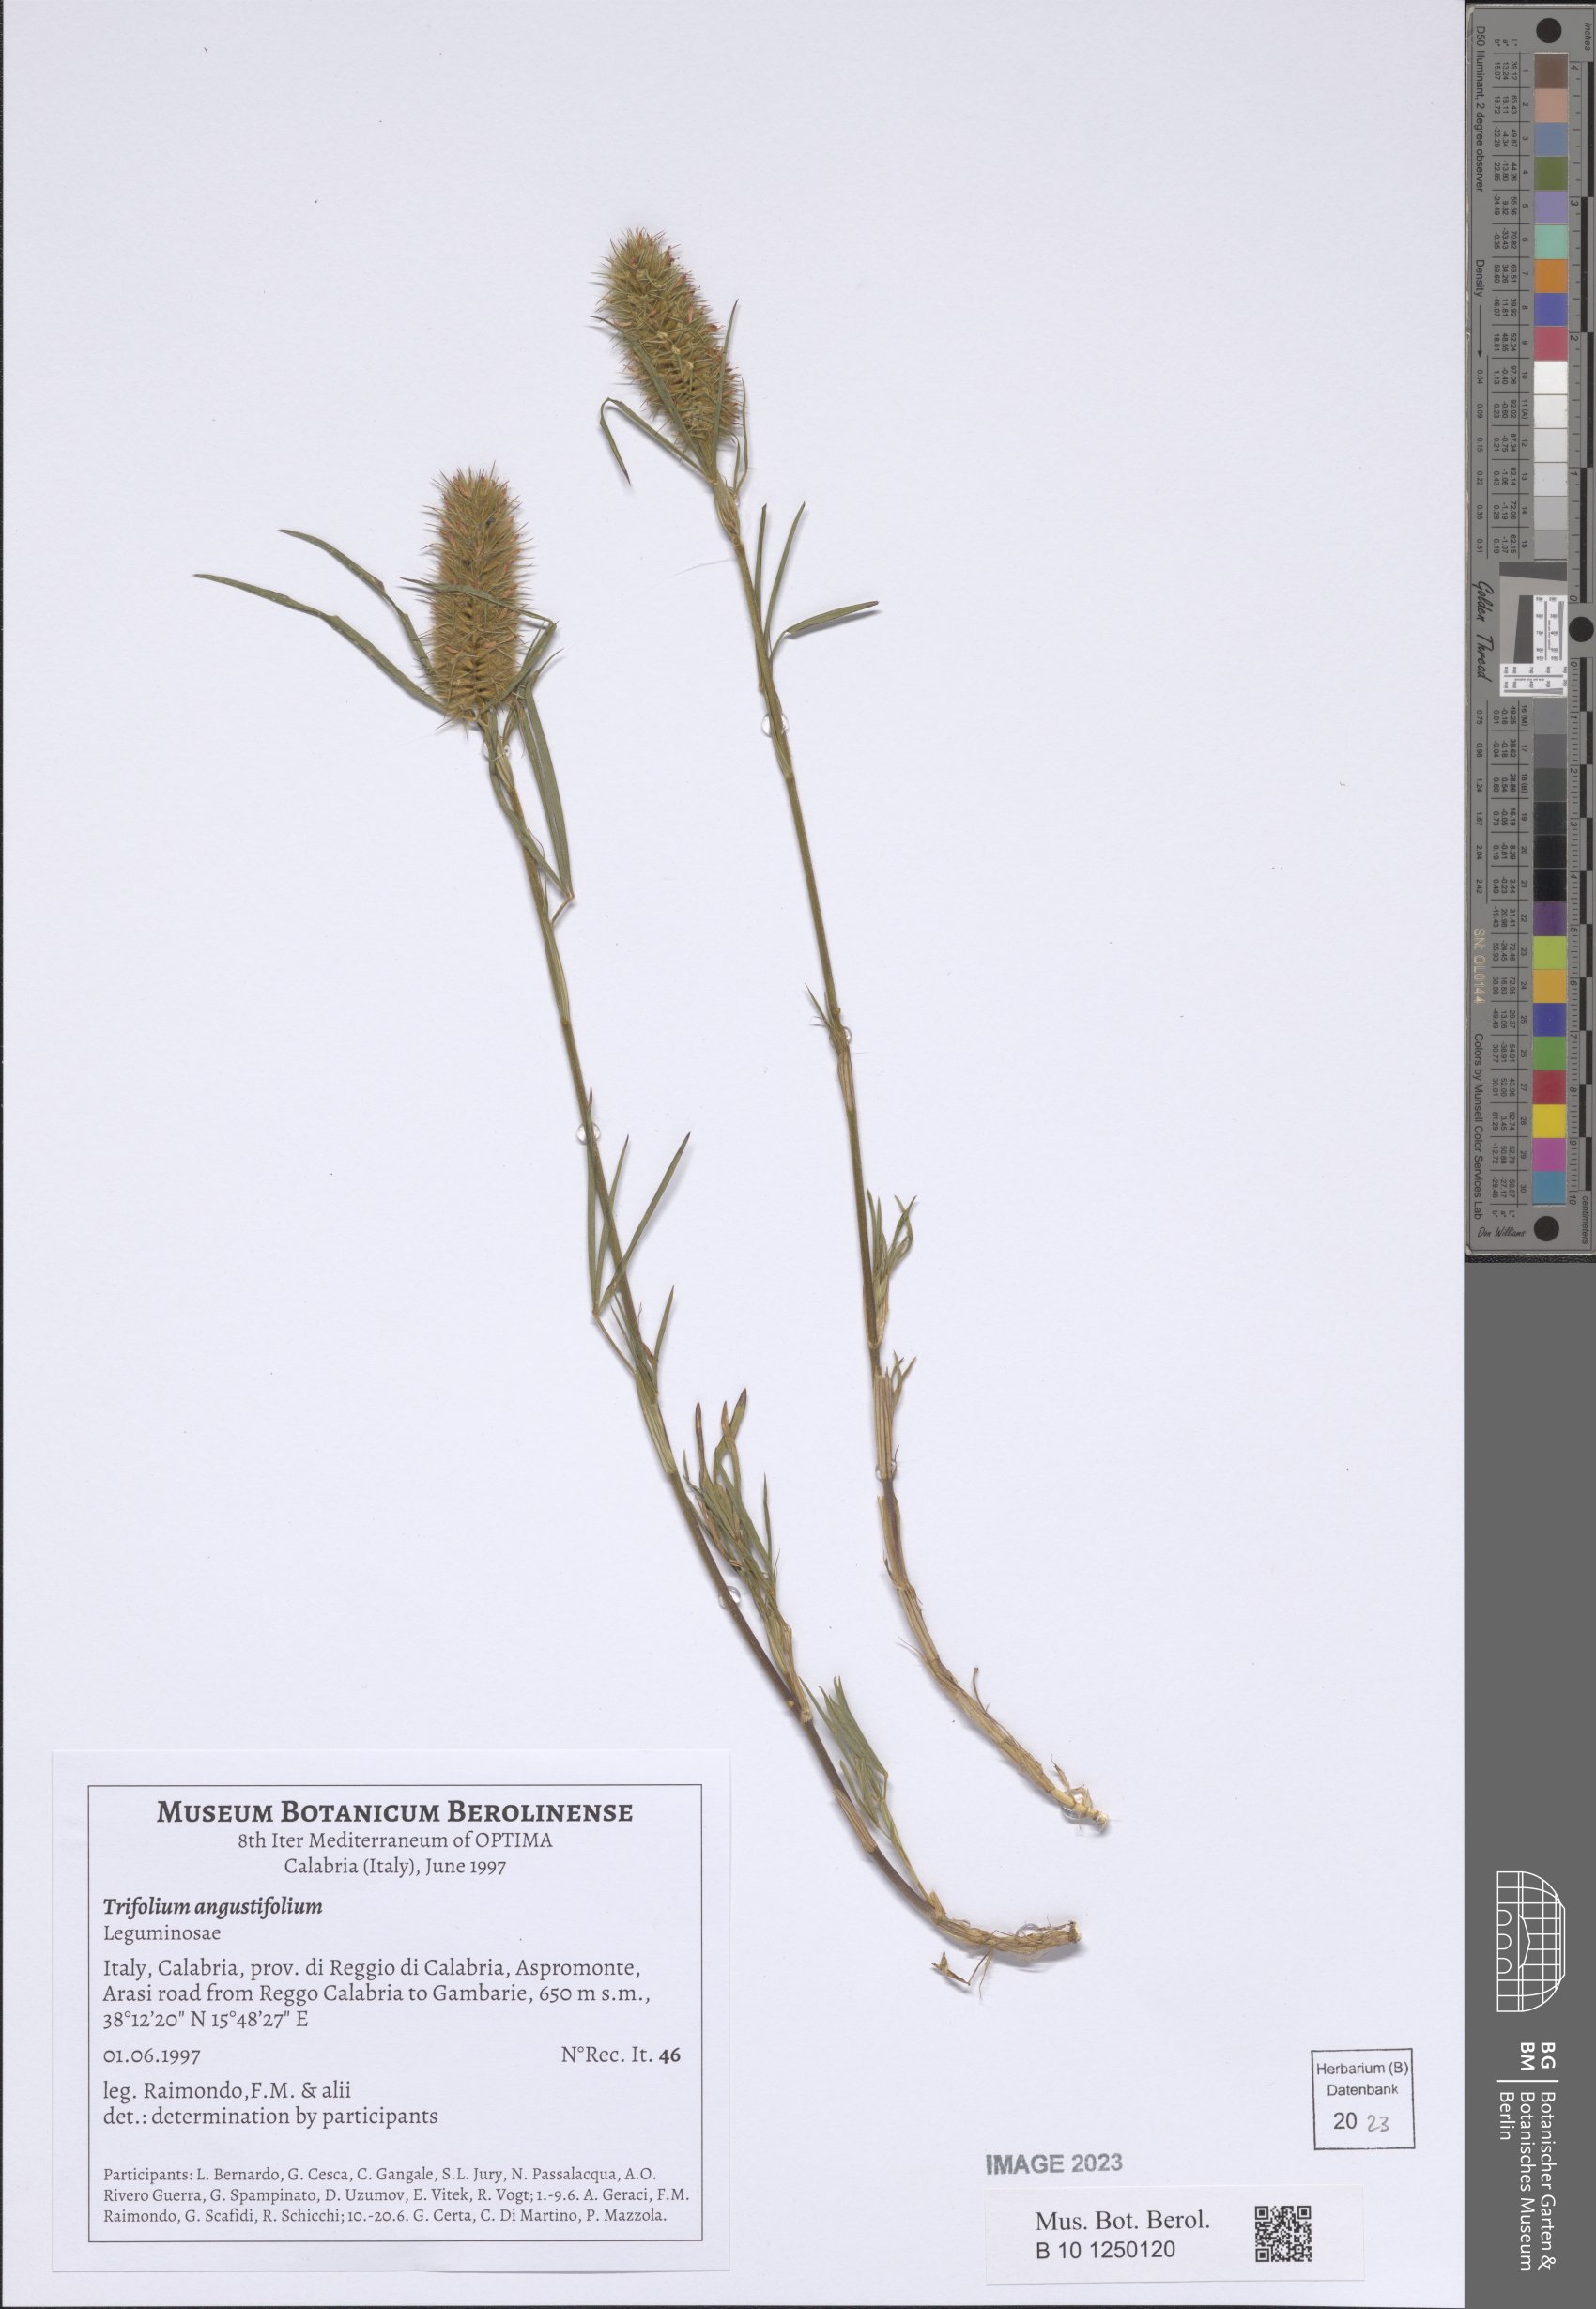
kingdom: Plantae
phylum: Tracheophyta
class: Magnoliopsida
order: Fabales
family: Fabaceae
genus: Trifolium
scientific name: Trifolium angustifolium
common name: Narrow clover
